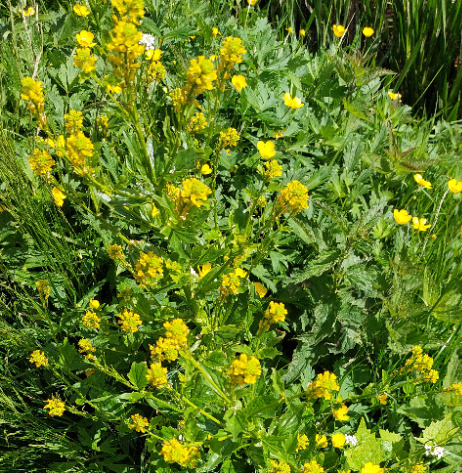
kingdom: Plantae
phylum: Tracheophyta
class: Magnoliopsida
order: Brassicales
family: Brassicaceae
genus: Barbarea
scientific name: Barbarea vulgaris
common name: Almindelig vinterkarse
